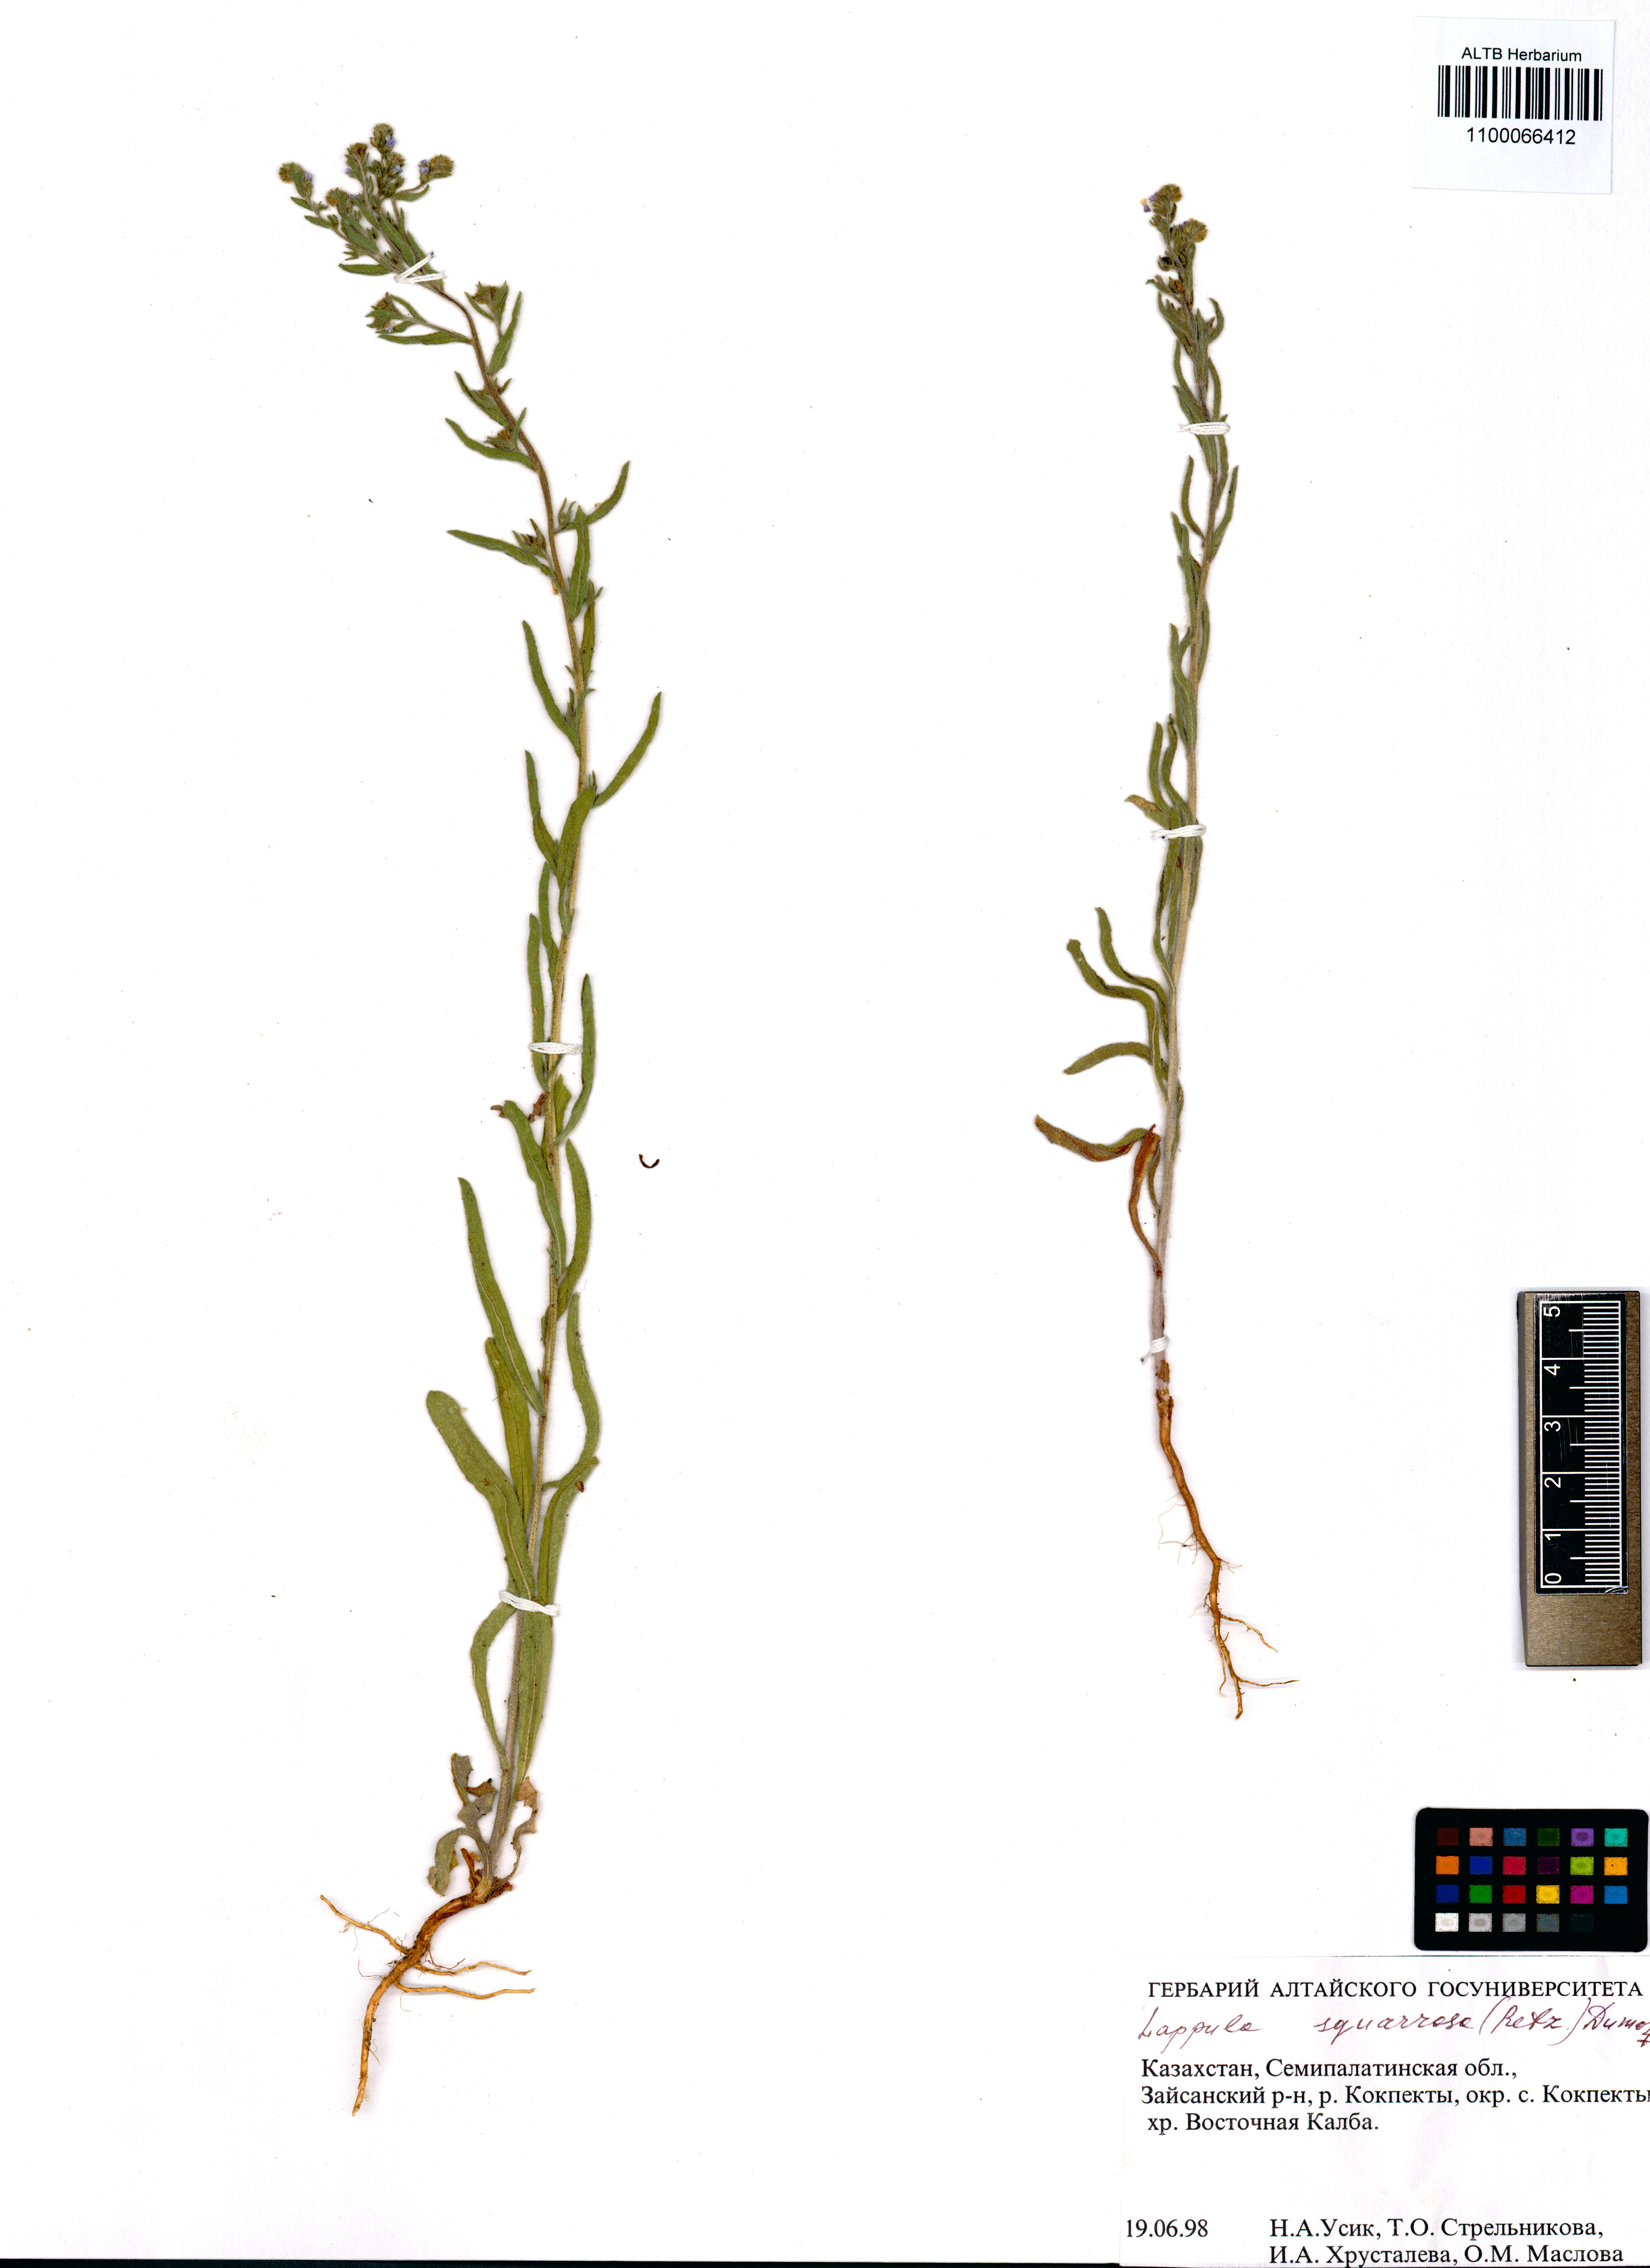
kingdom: Plantae
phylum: Tracheophyta
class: Magnoliopsida
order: Boraginales
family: Boraginaceae
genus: Lappula
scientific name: Lappula squarrosa
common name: European stickseed
